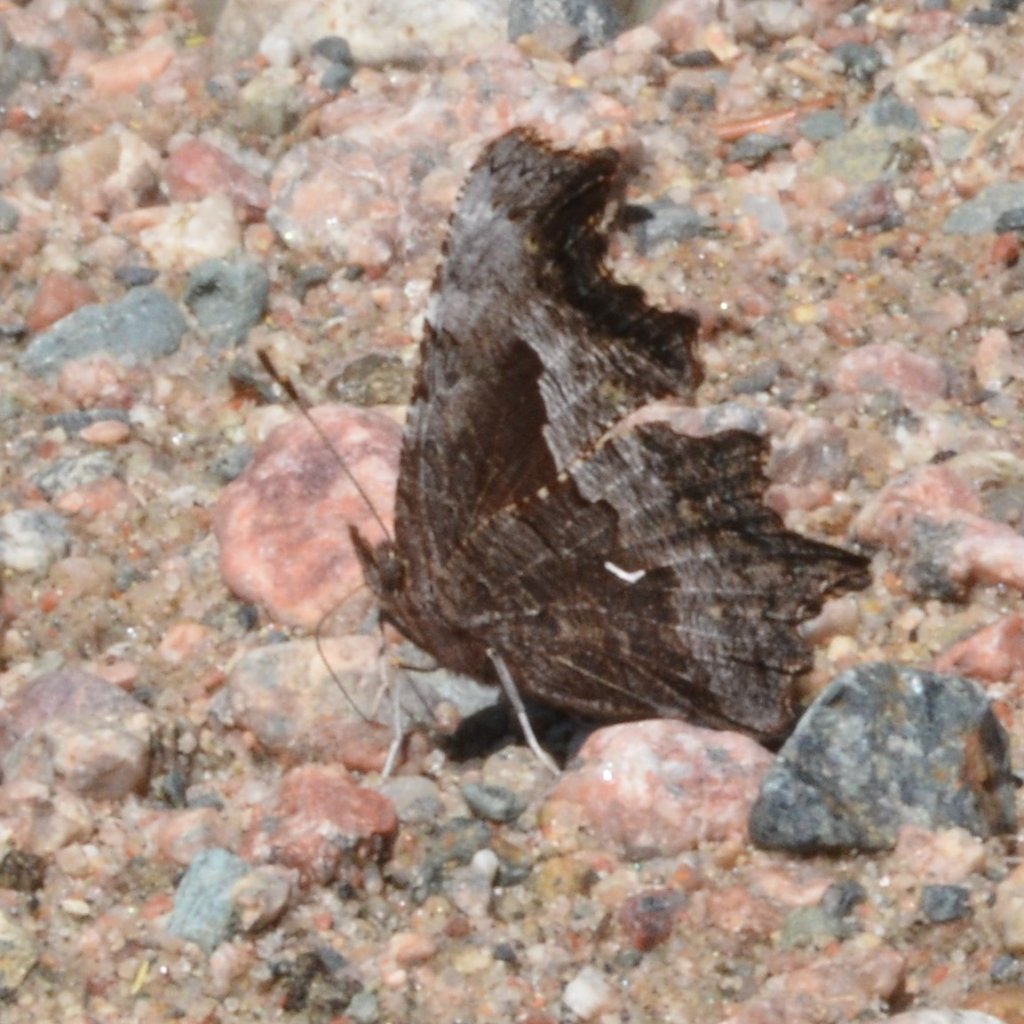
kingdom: Animalia
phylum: Arthropoda
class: Insecta
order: Lepidoptera
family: Nymphalidae
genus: Polygonia
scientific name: Polygonia gracilis
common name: Hoary Comma
